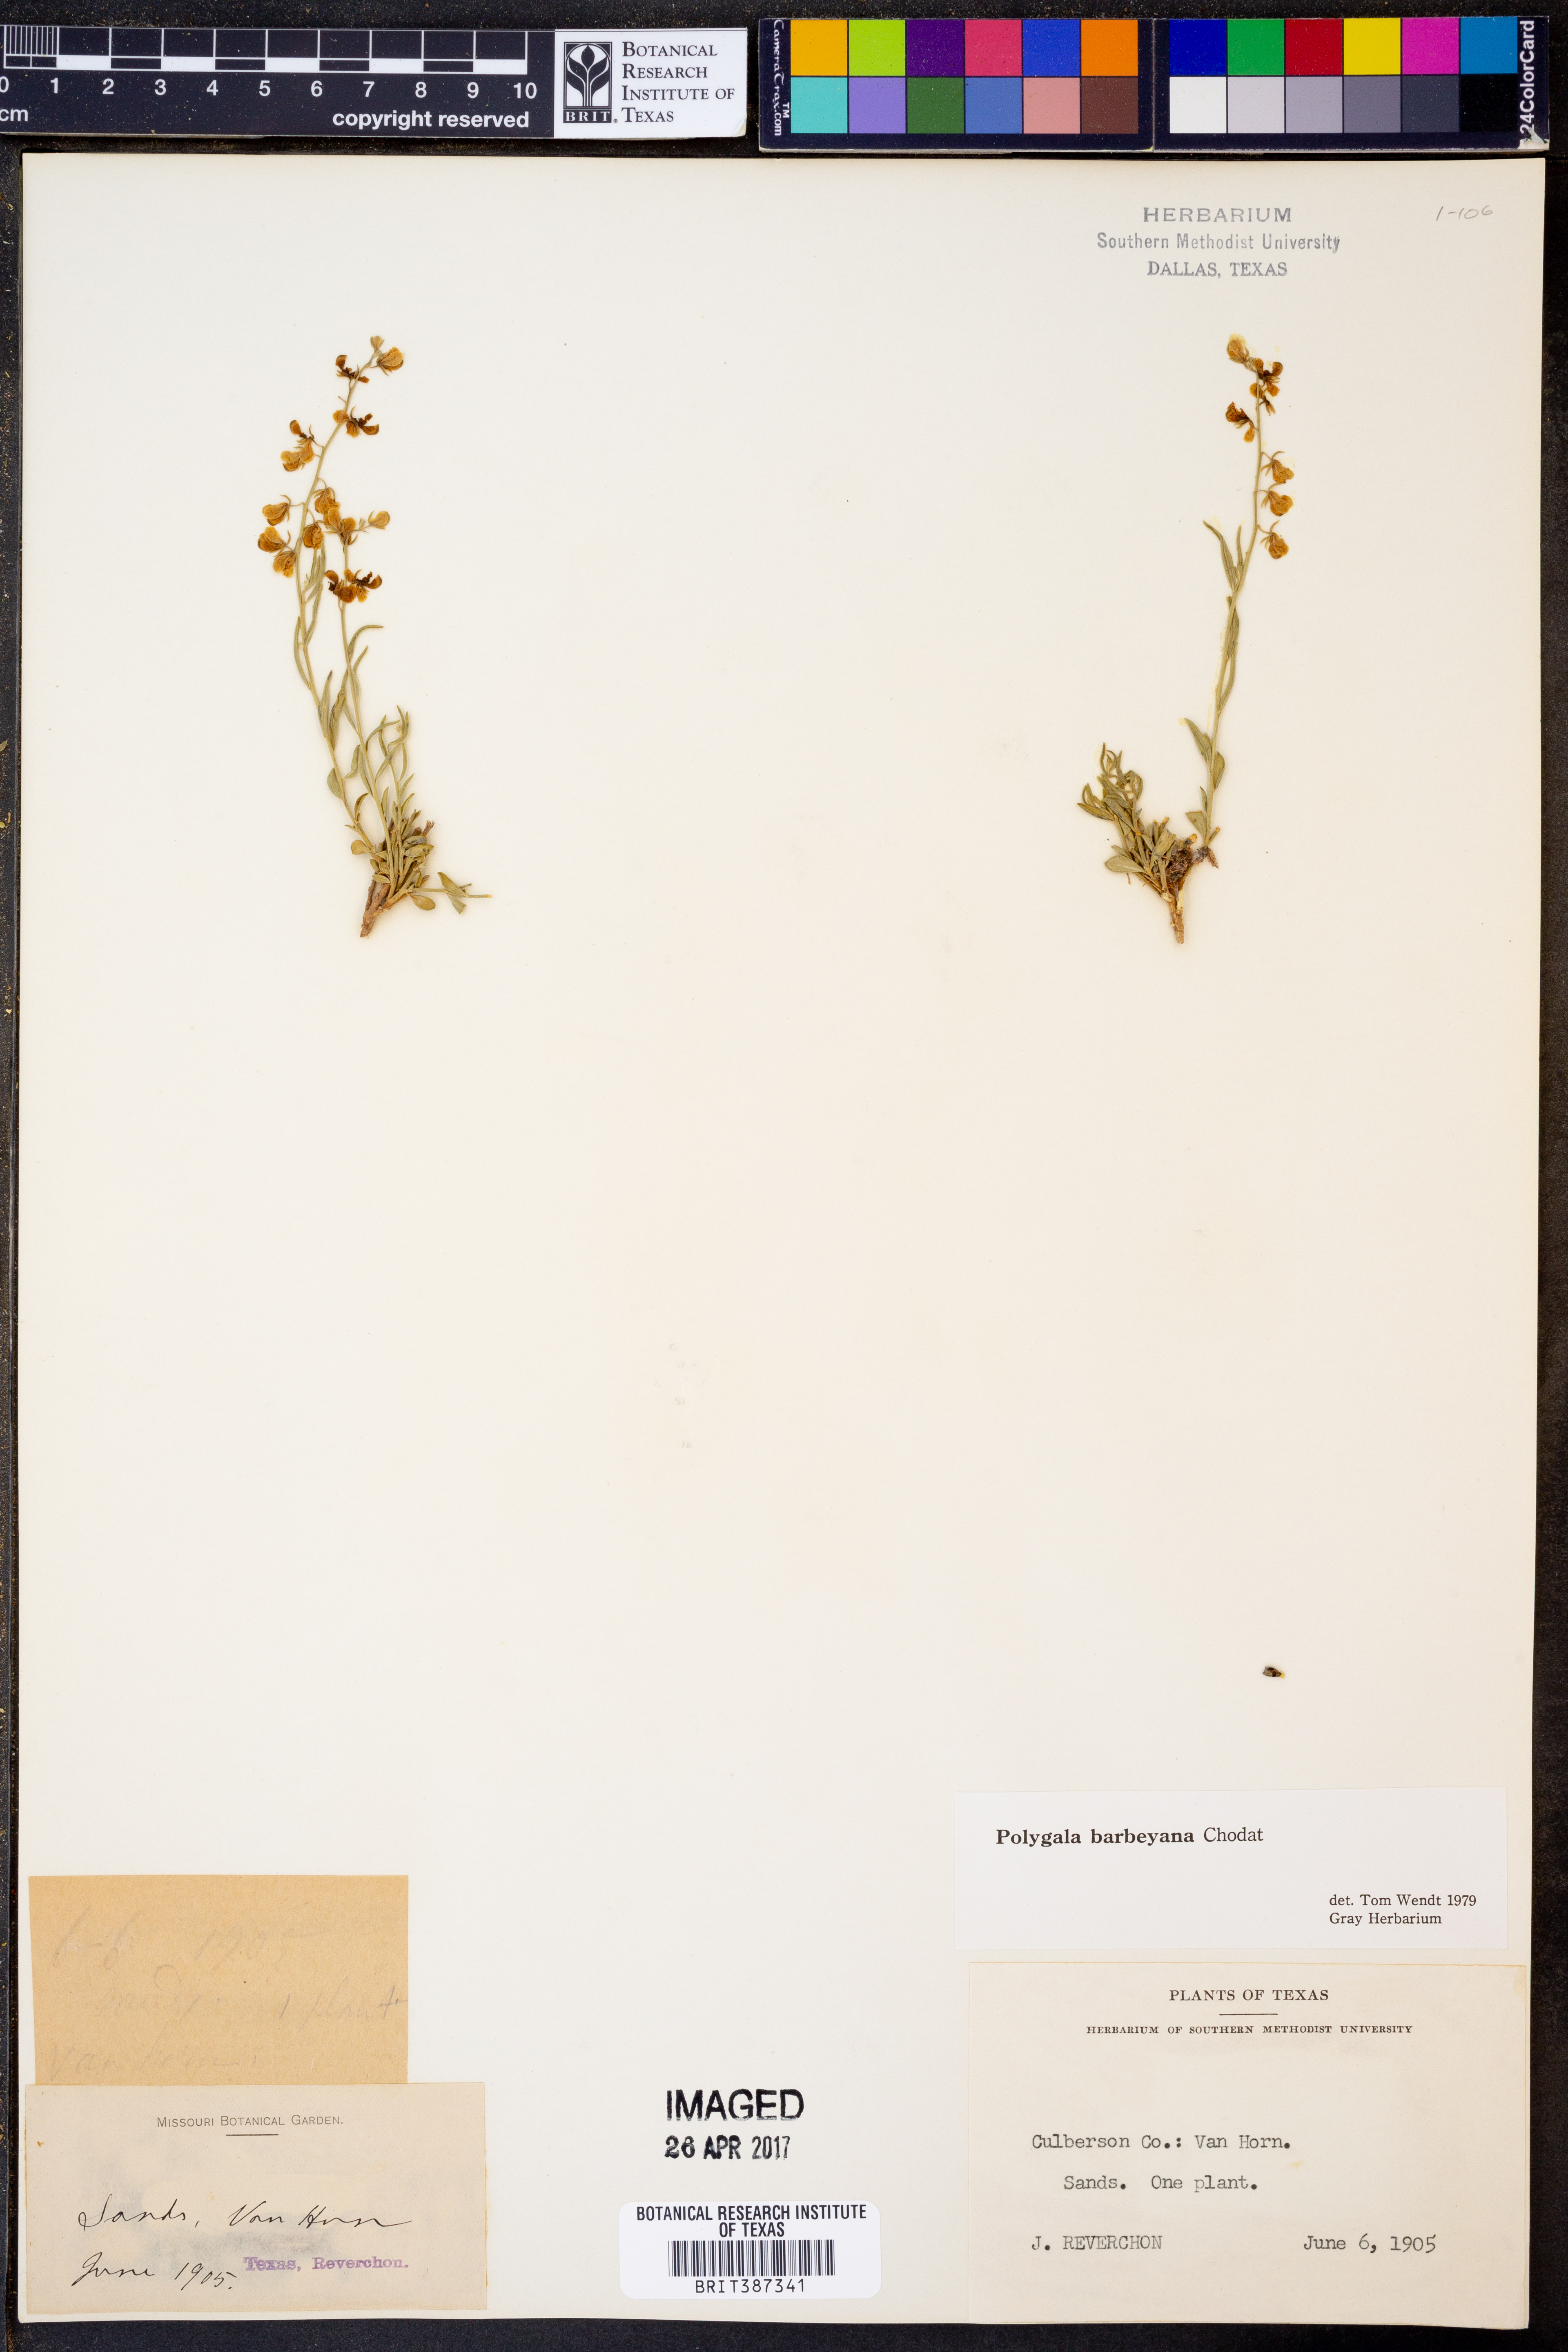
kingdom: Plantae
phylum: Tracheophyta
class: Magnoliopsida
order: Fabales
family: Polygalaceae
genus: Hebecarpa
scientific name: Hebecarpa barbeyana
